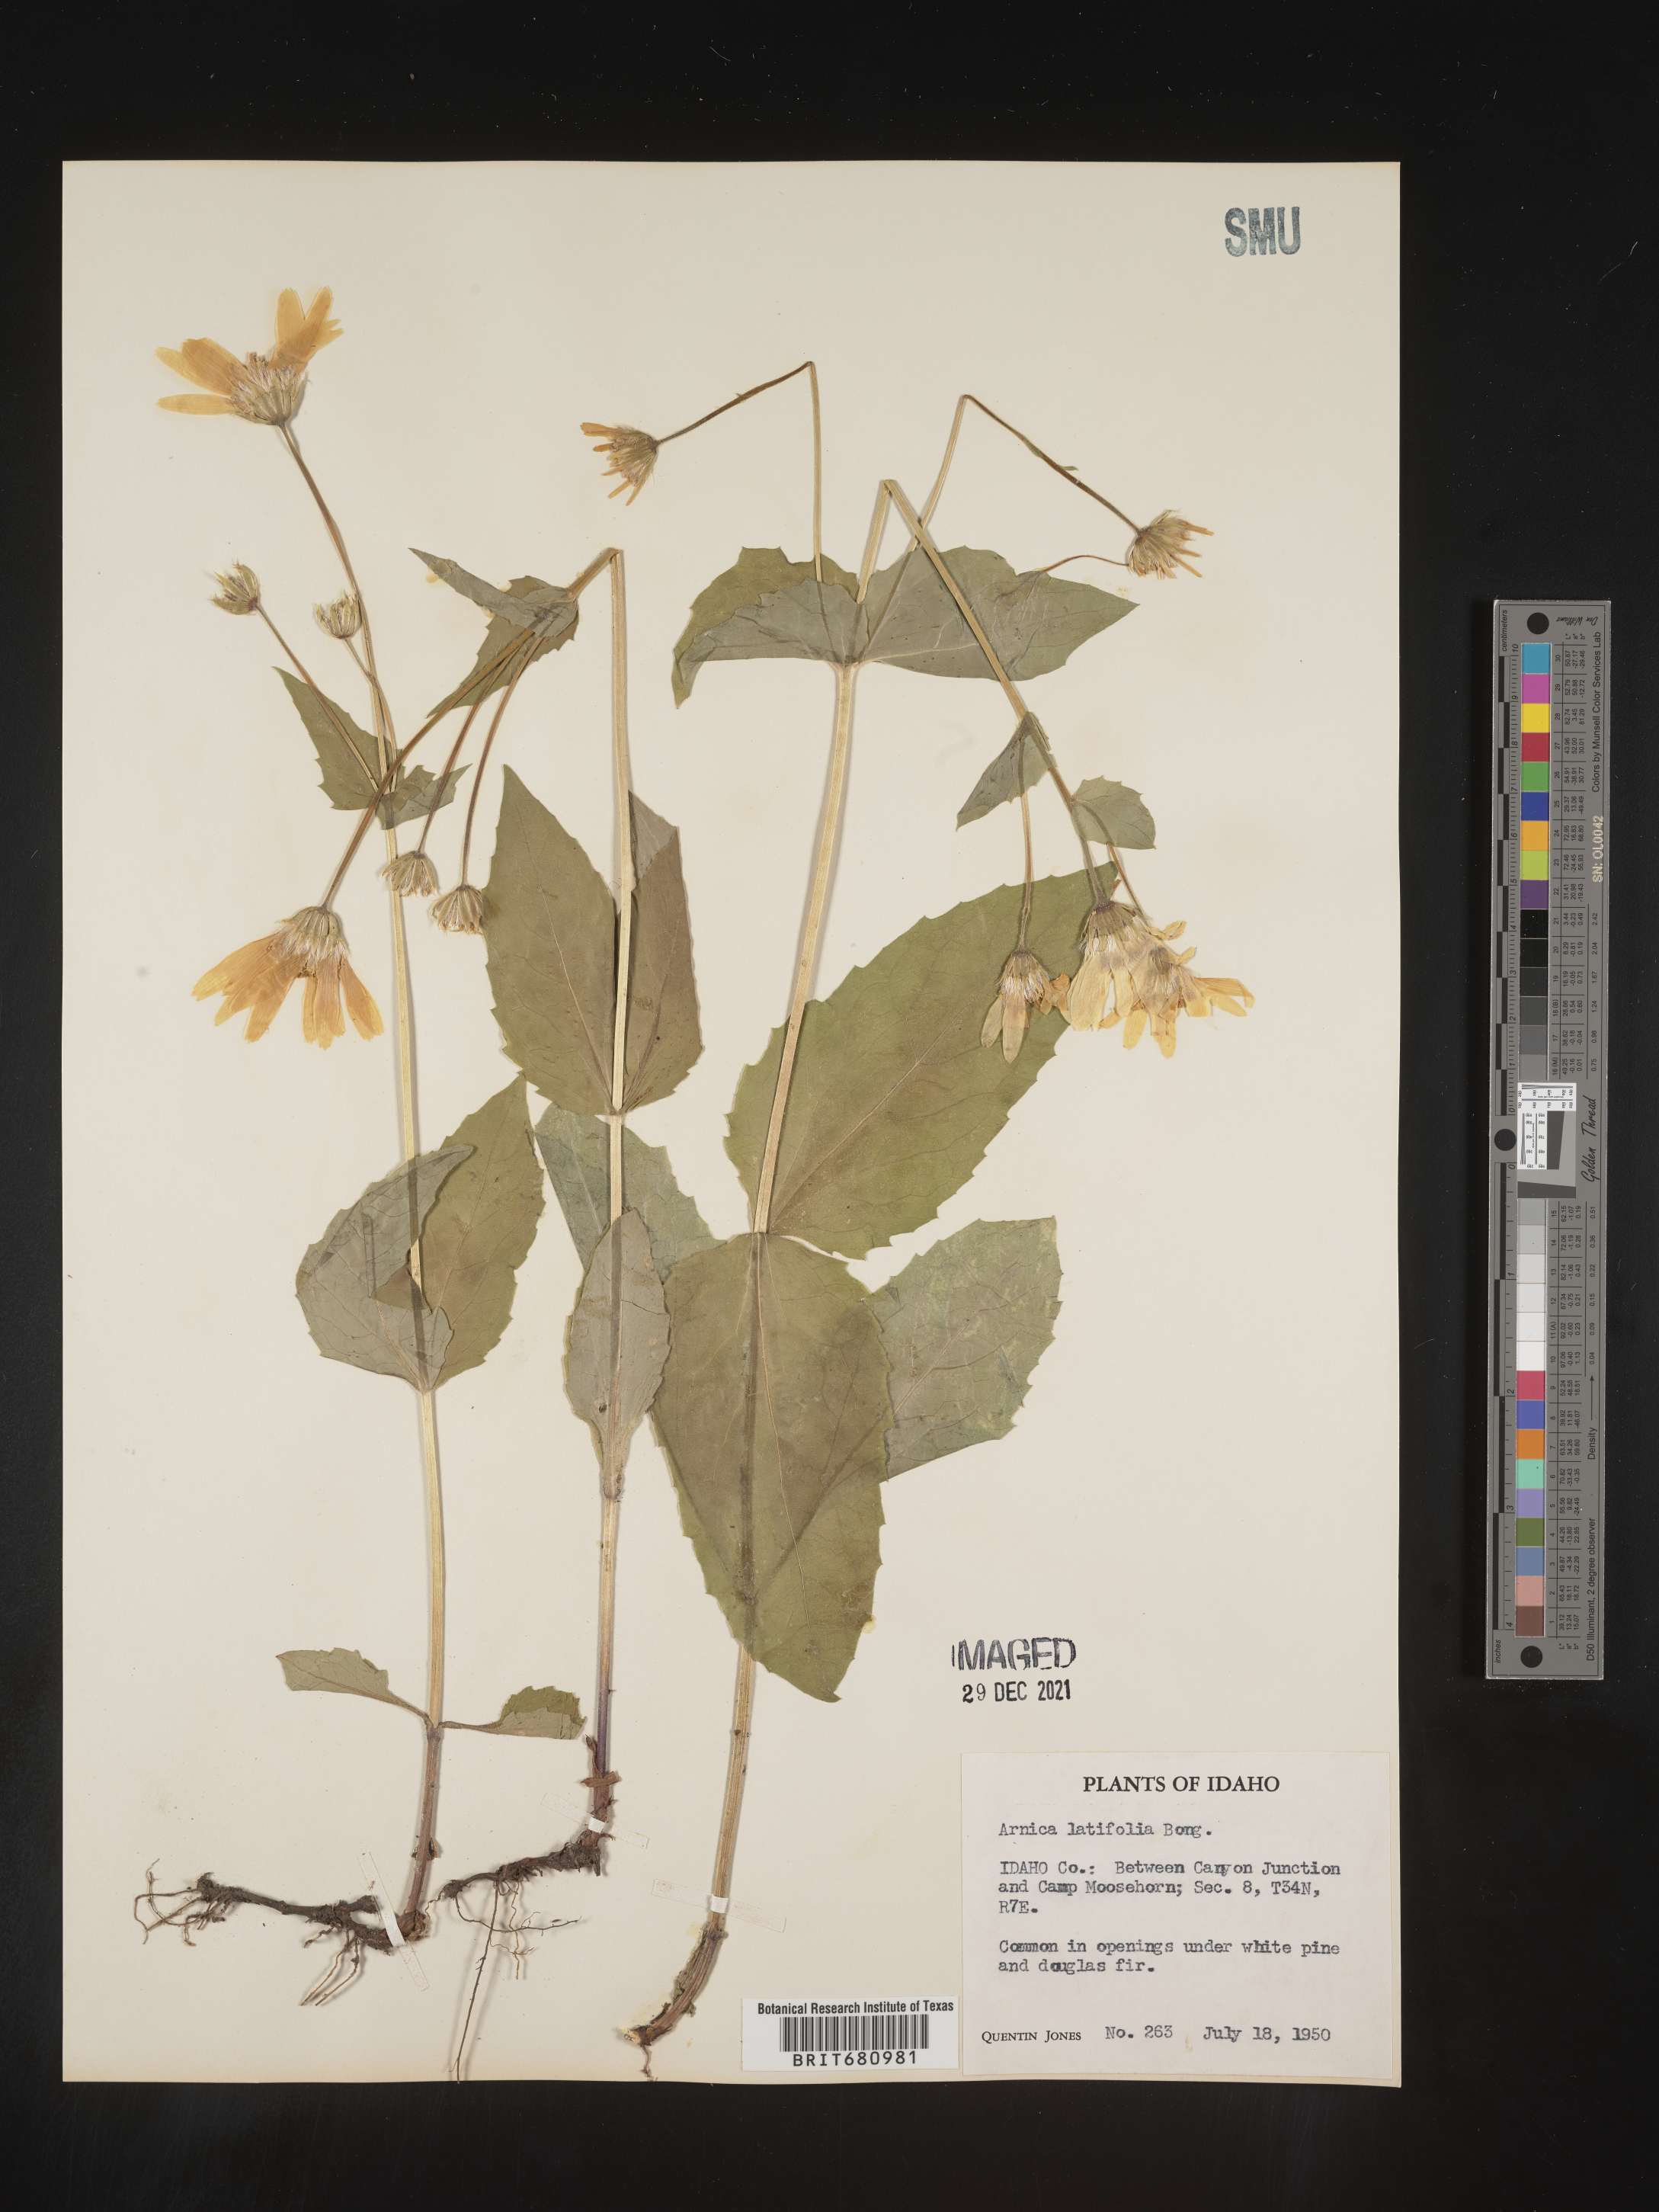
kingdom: Plantae
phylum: Tracheophyta
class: Magnoliopsida
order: Asterales
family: Asteraceae
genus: Arnica
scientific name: Arnica latifolia
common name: Arnica
